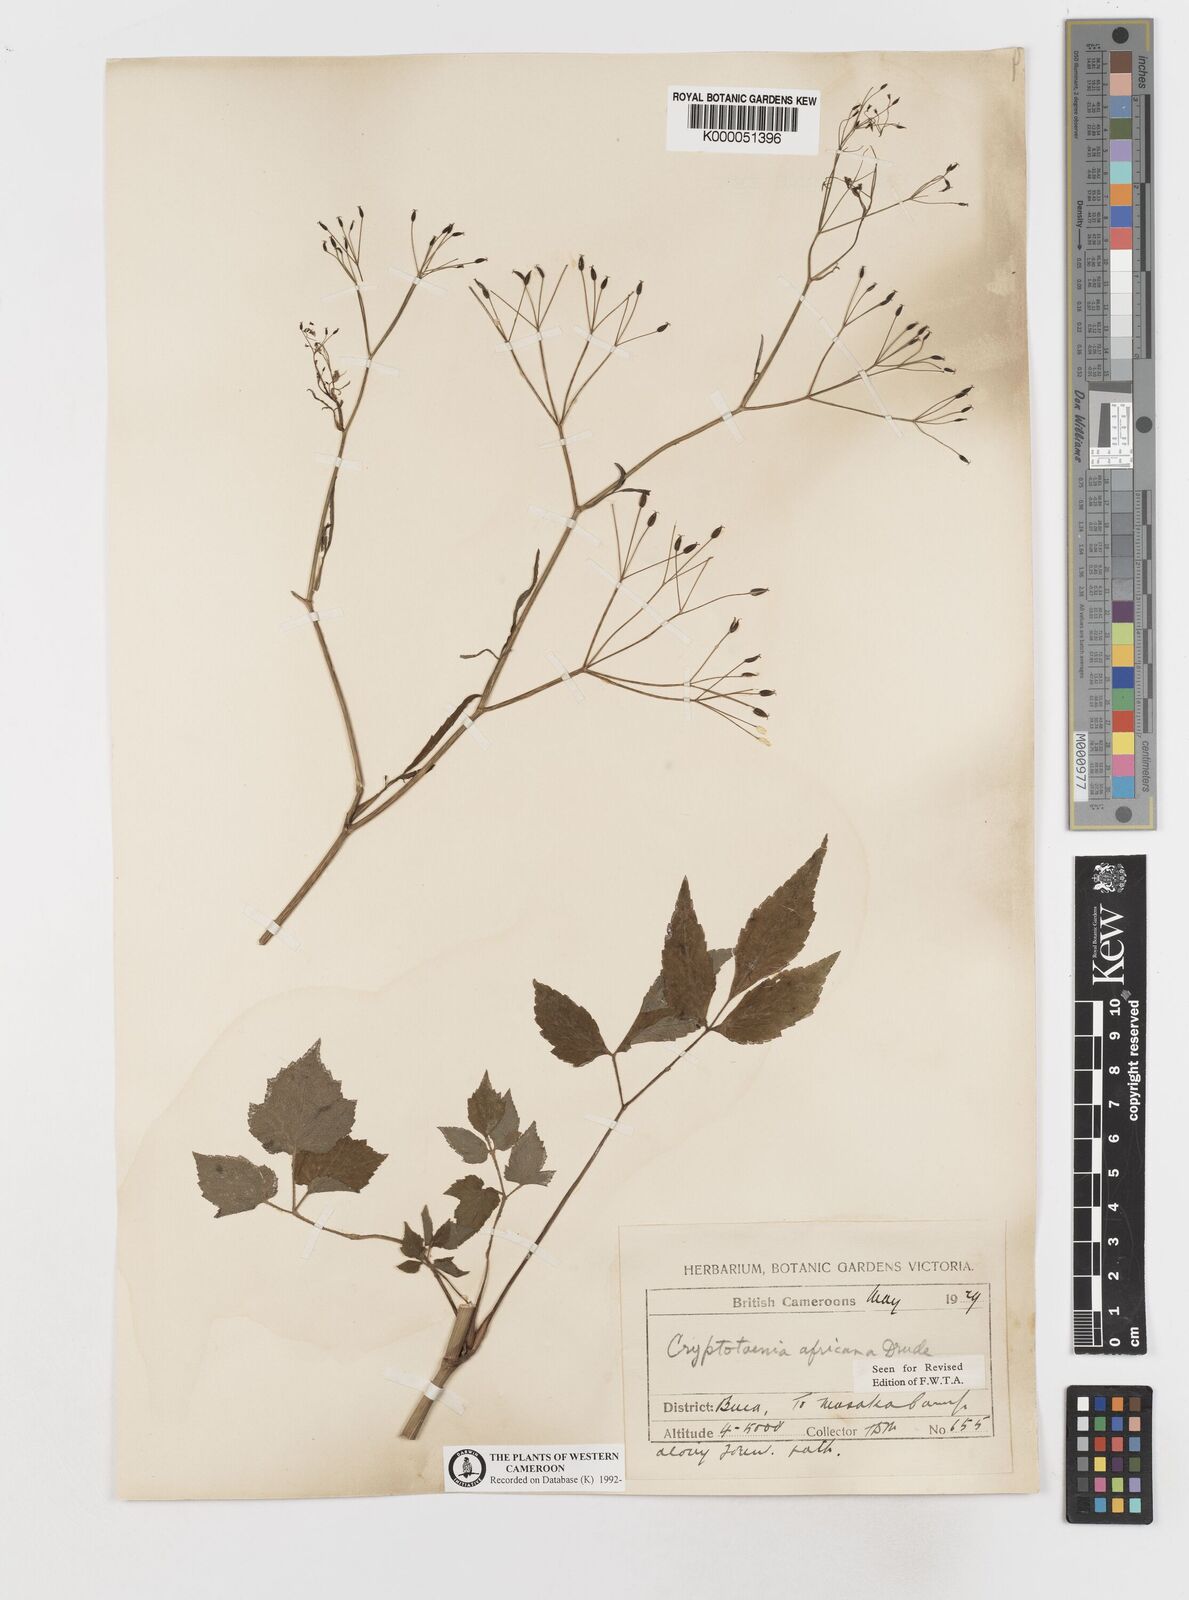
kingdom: Plantae
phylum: Tracheophyta
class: Magnoliopsida
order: Apiales
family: Apiaceae
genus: Cryptotaenia
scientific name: Cryptotaenia africana
